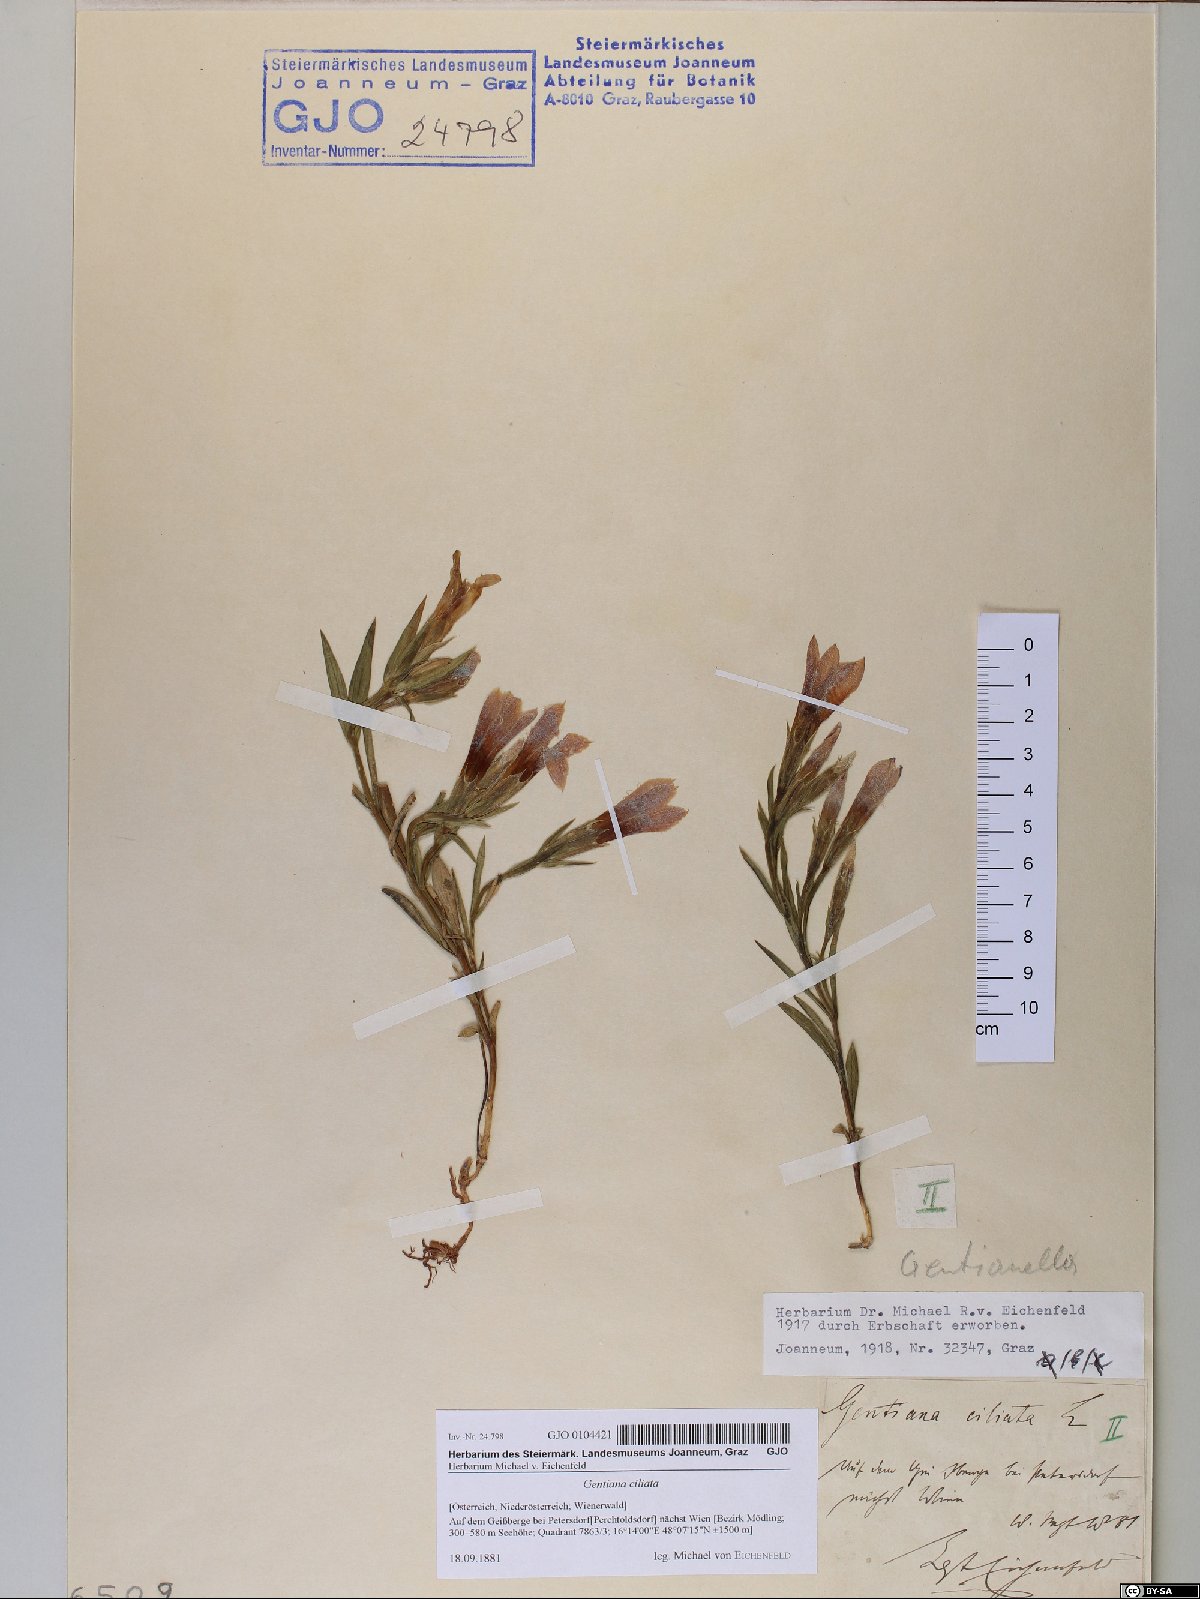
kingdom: Plantae
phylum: Tracheophyta
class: Magnoliopsida
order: Gentianales
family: Gentianaceae
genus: Gentianopsis
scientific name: Gentianopsis ciliata
